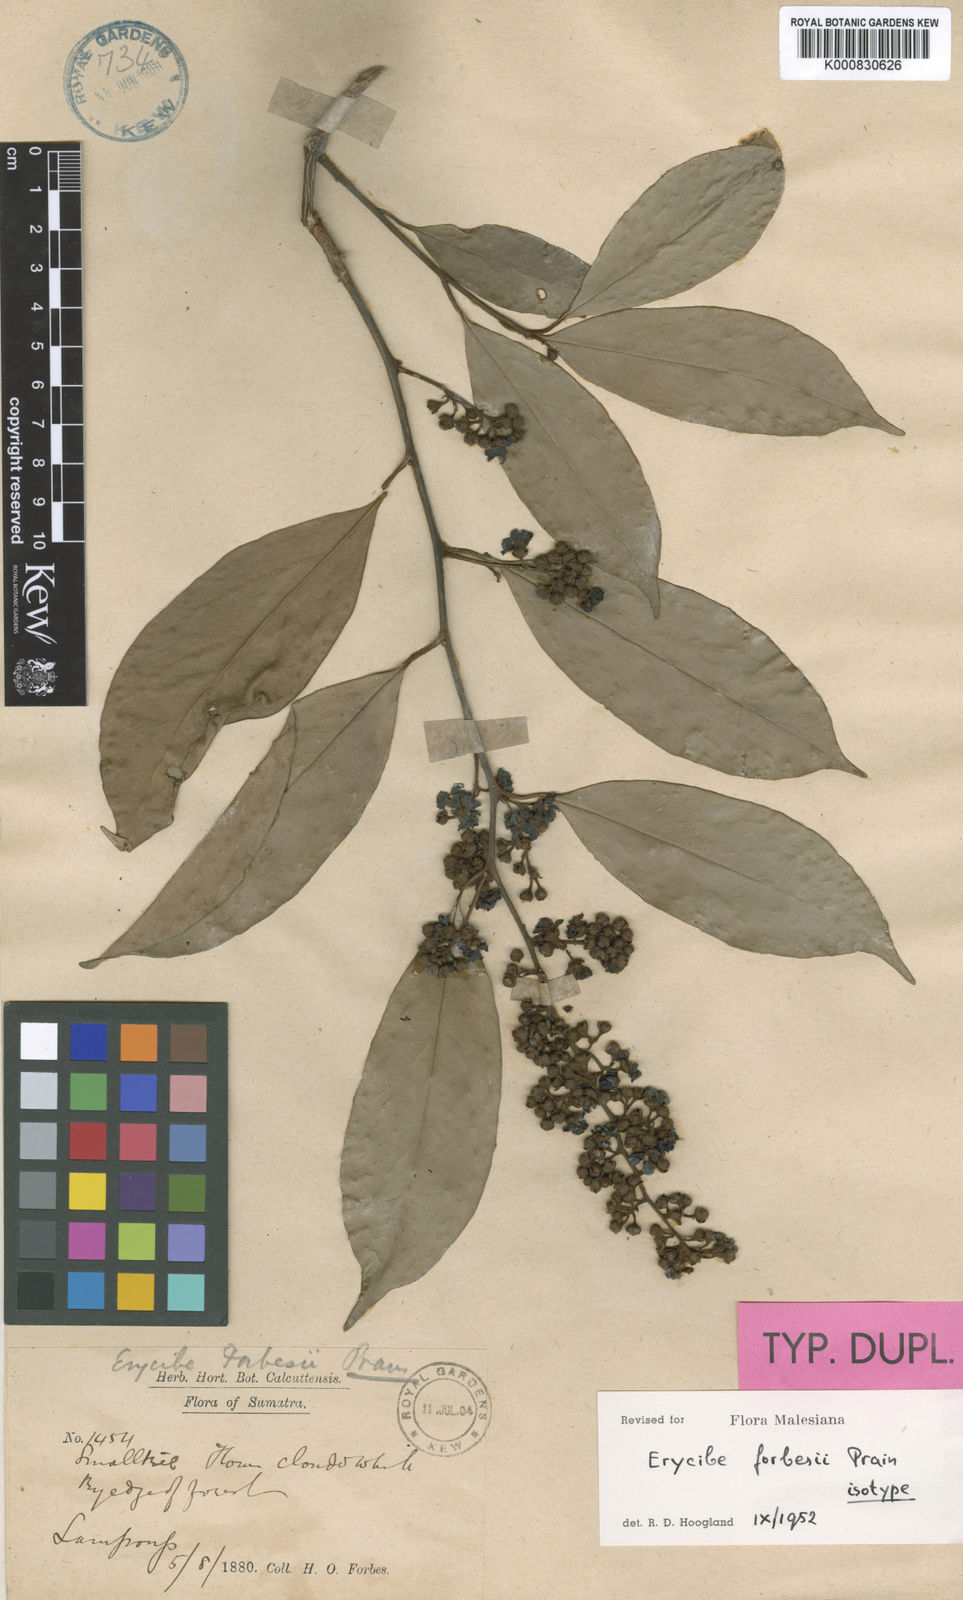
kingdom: Plantae
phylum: Tracheophyta
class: Magnoliopsida
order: Solanales
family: Convolvulaceae
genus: Erycibe
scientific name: Erycibe forbesii
